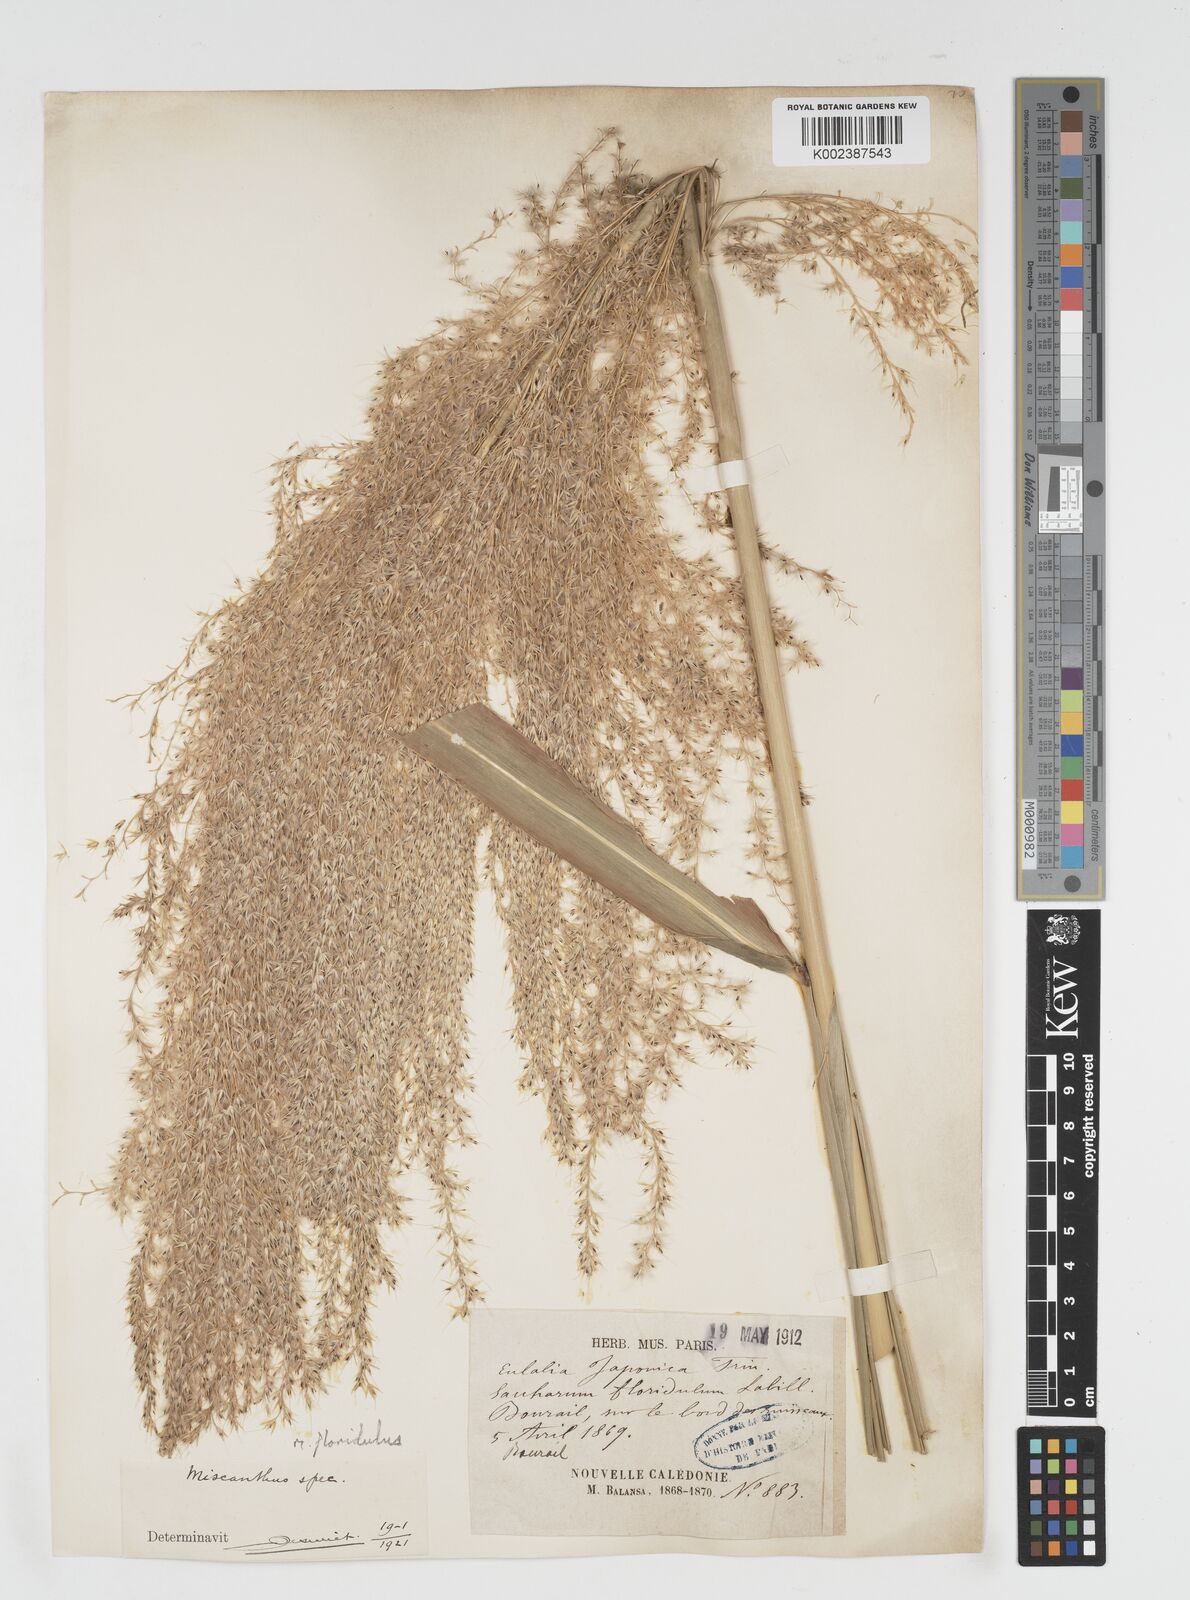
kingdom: Plantae
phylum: Tracheophyta
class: Liliopsida
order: Poales
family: Poaceae
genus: Miscanthus
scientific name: Miscanthus floridulus
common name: Pacific island silvergrass
